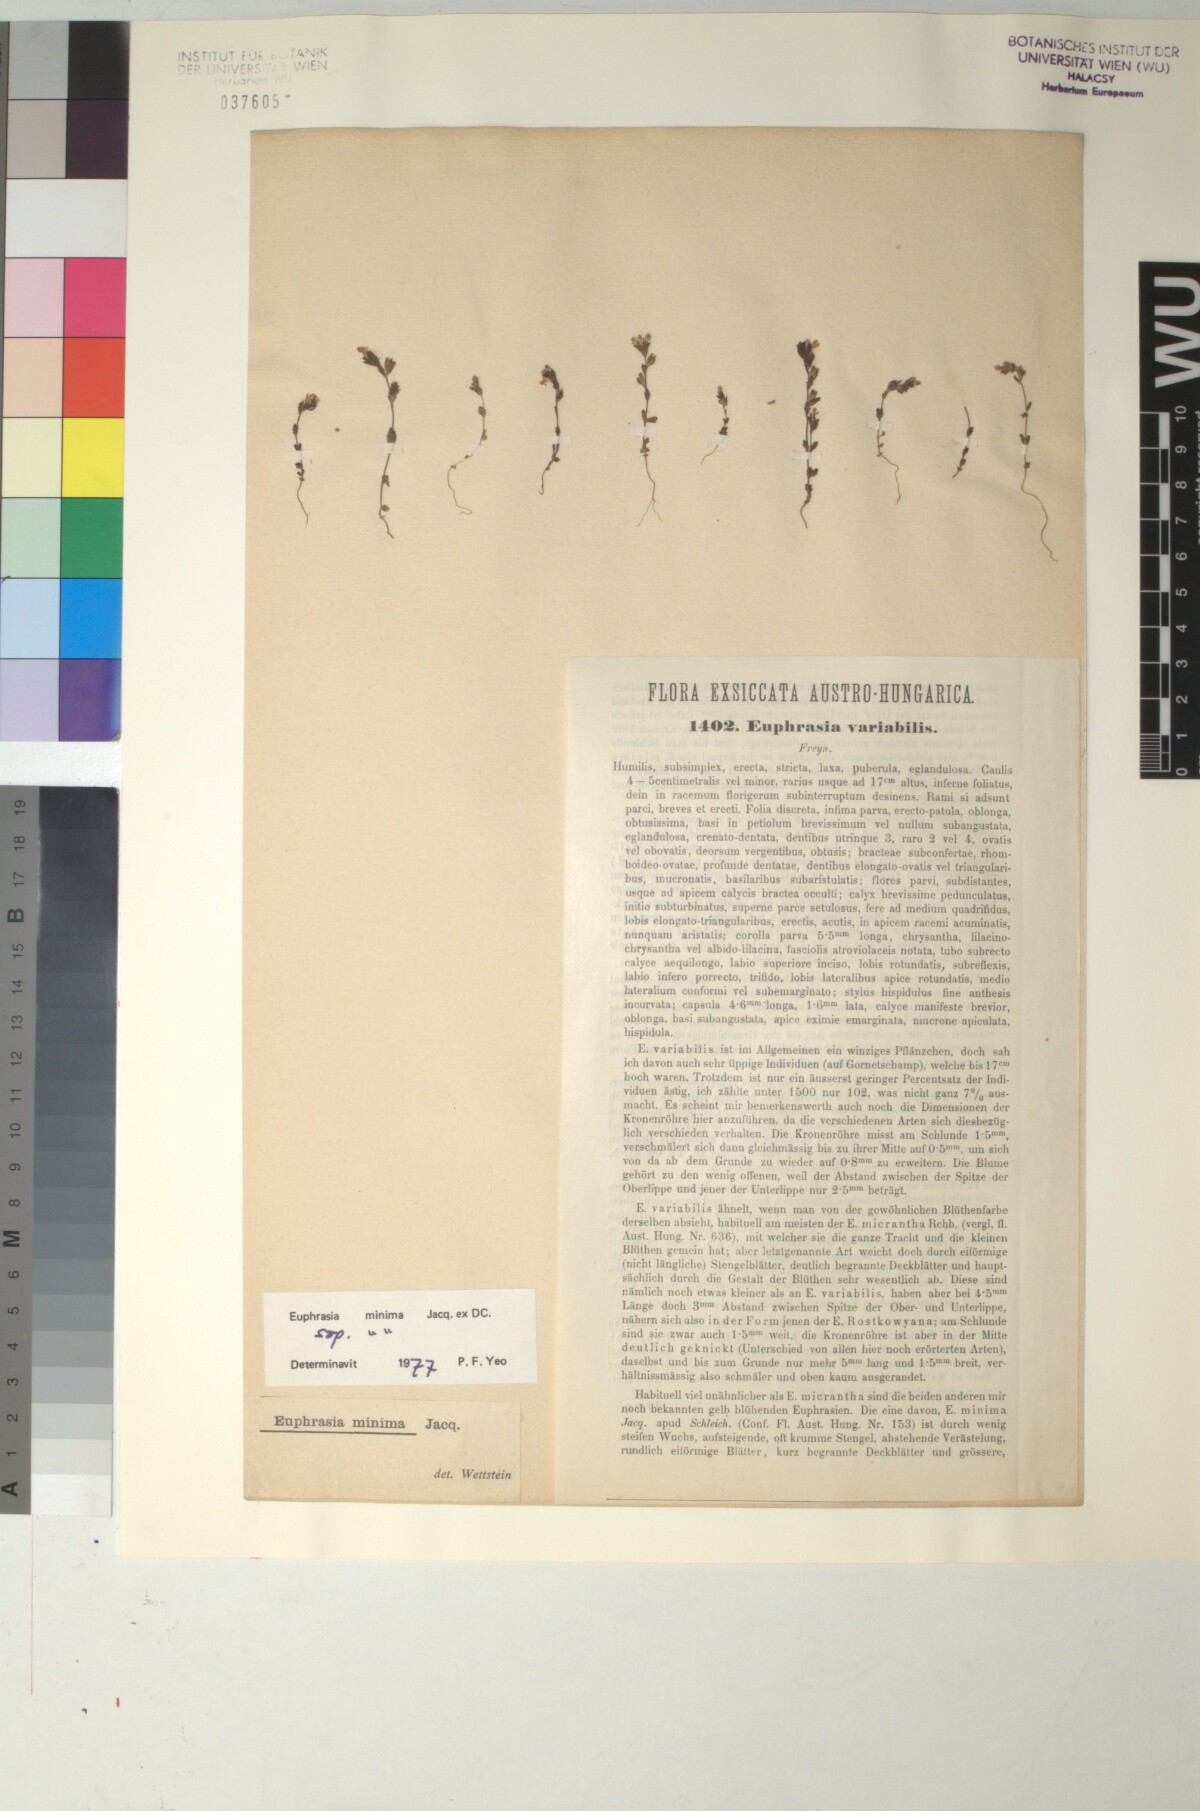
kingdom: Plantae
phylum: Tracheophyta
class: Magnoliopsida
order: Lamiales
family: Orobanchaceae
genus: Euphrasia
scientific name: Euphrasia variabilis
